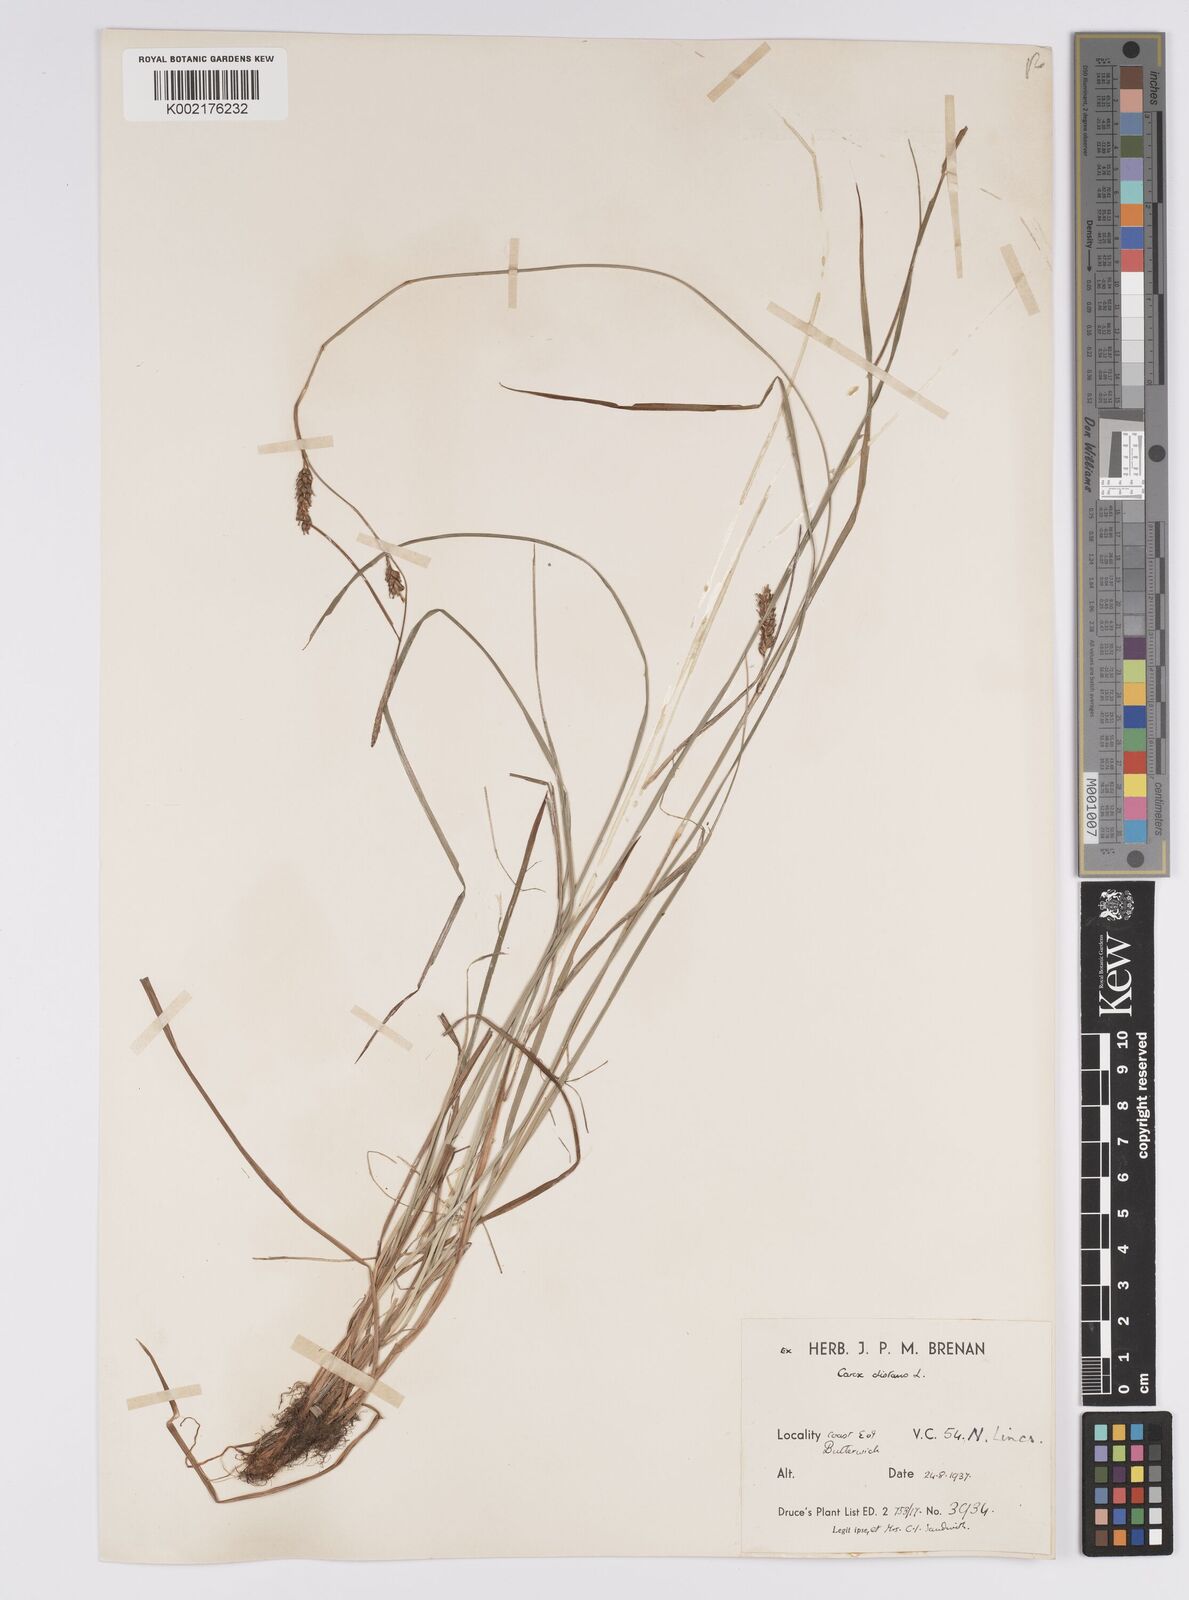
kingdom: Plantae
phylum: Tracheophyta
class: Liliopsida
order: Poales
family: Cyperaceae
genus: Carex
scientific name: Carex distans
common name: Distant sedge
